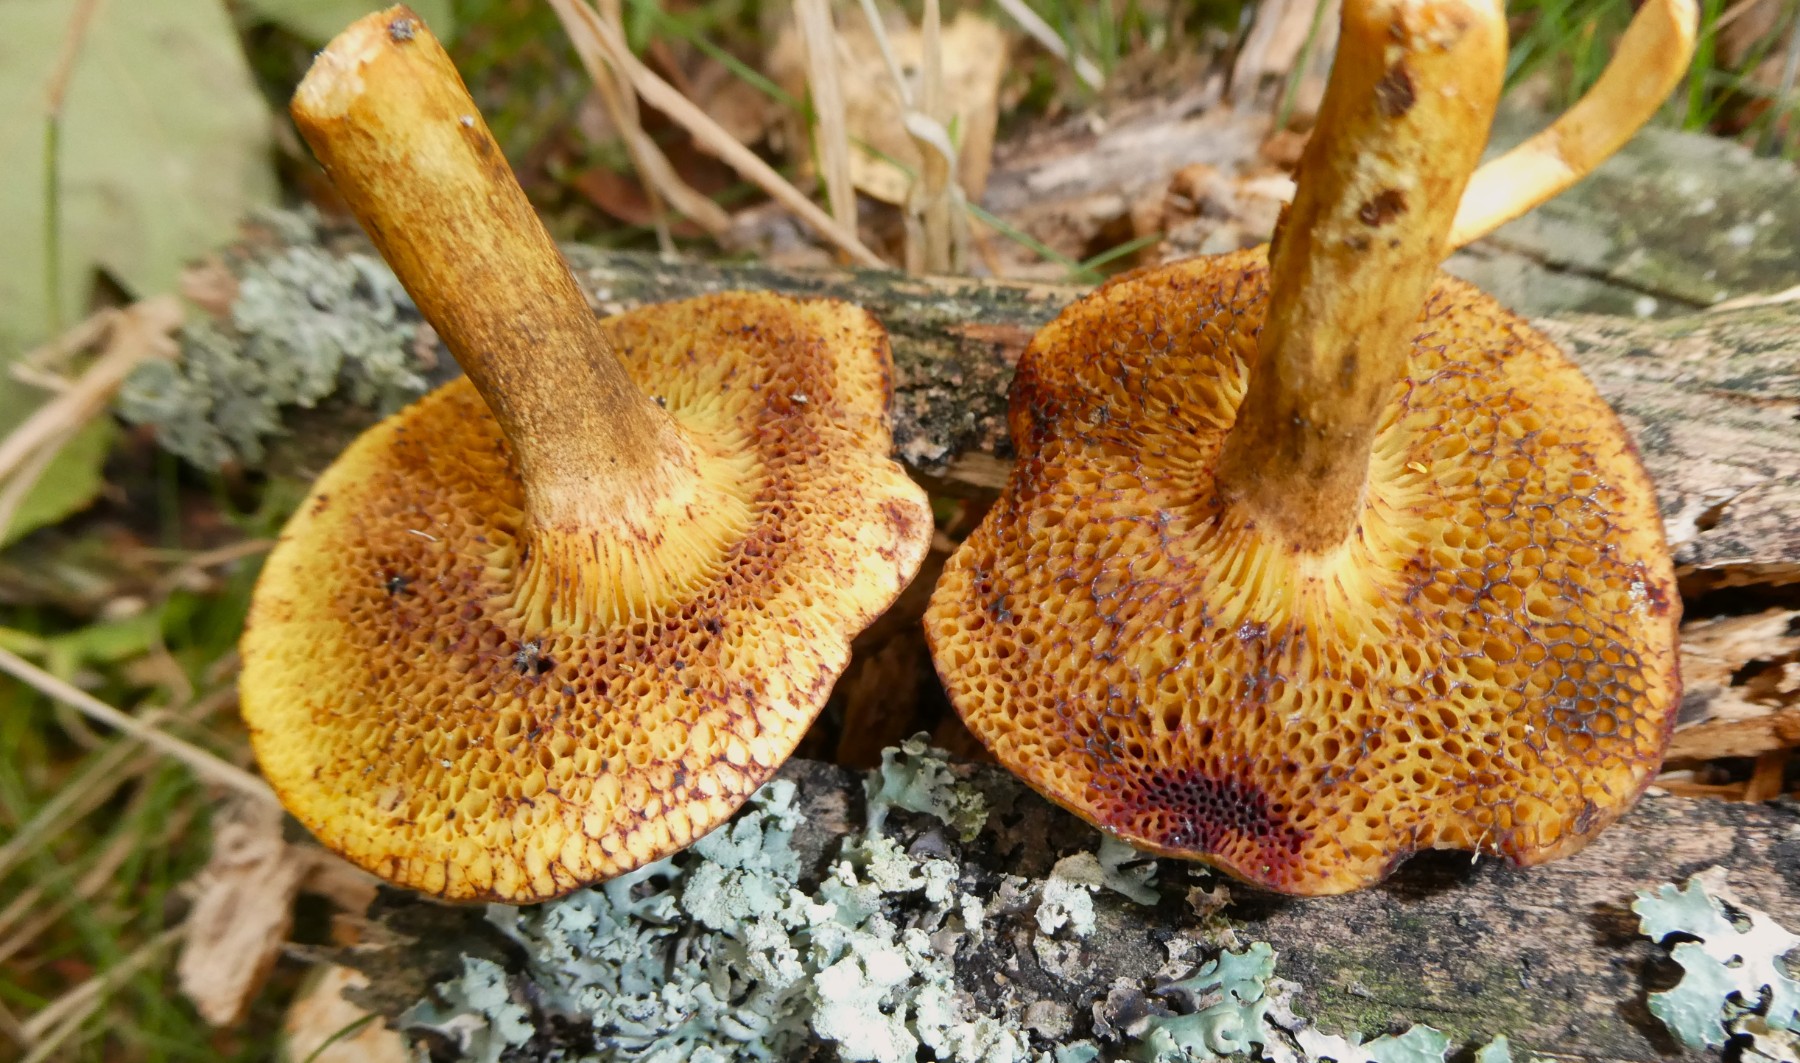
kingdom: Fungi
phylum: Basidiomycota
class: Agaricomycetes
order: Boletales
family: Boletaceae
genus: Pseudoboletus
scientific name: Pseudoboletus parasiticus
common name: snyltende rørhat
